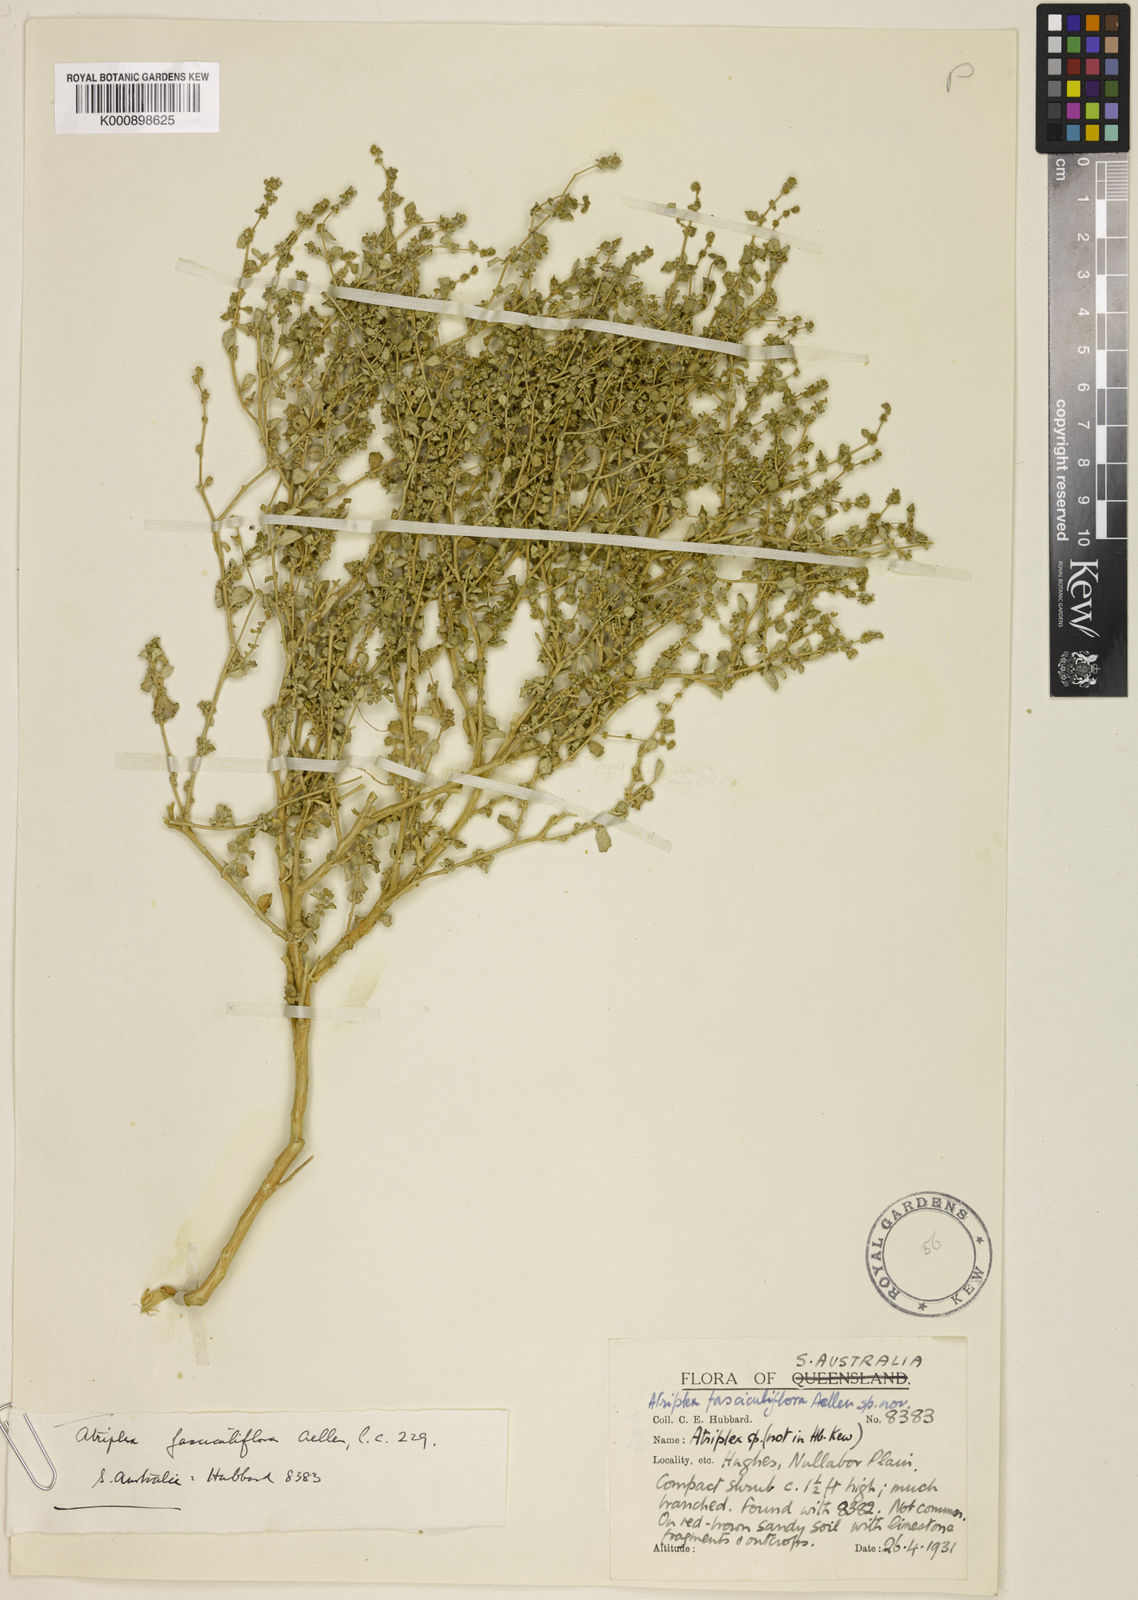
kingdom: Plantae
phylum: Tracheophyta
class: Magnoliopsida
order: Caryophyllales
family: Amaranthaceae
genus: Atriplex
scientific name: Atriplex acutibractea
